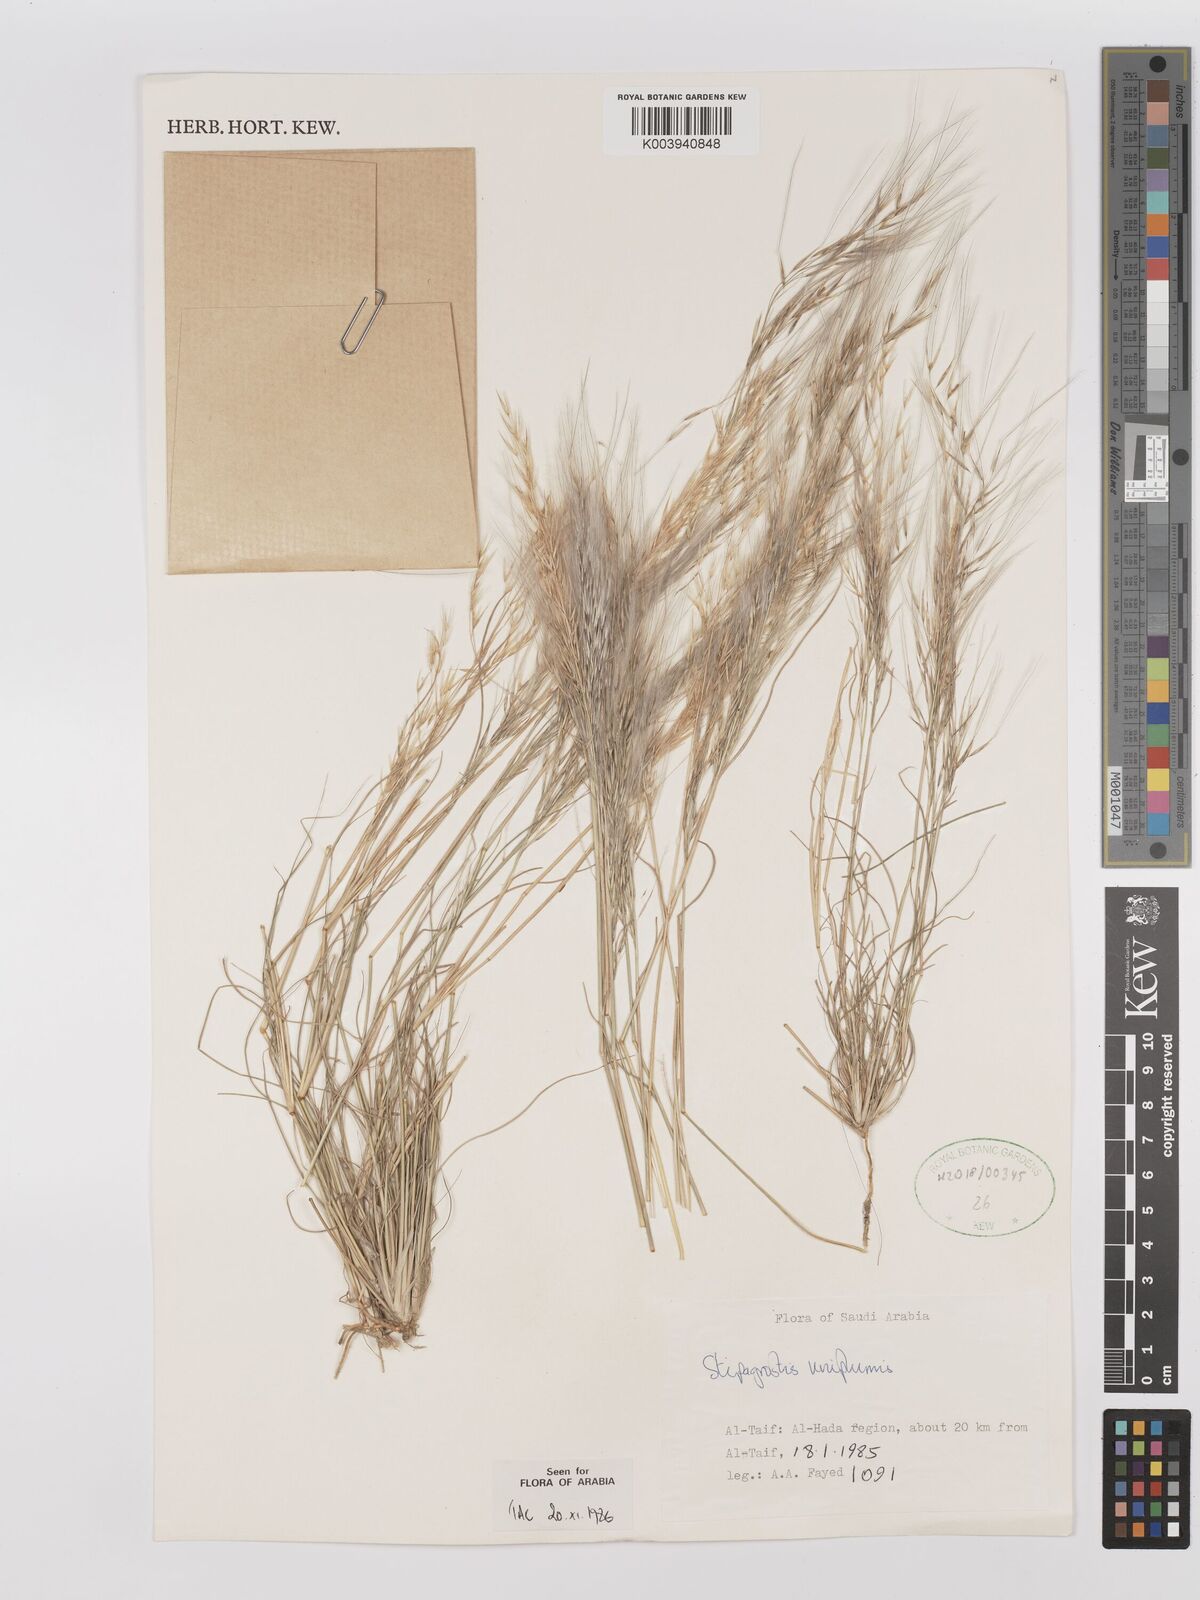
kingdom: Plantae
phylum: Tracheophyta
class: Liliopsida
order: Poales
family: Poaceae
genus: Stipagrostis
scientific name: Stipagrostis uniplumis
